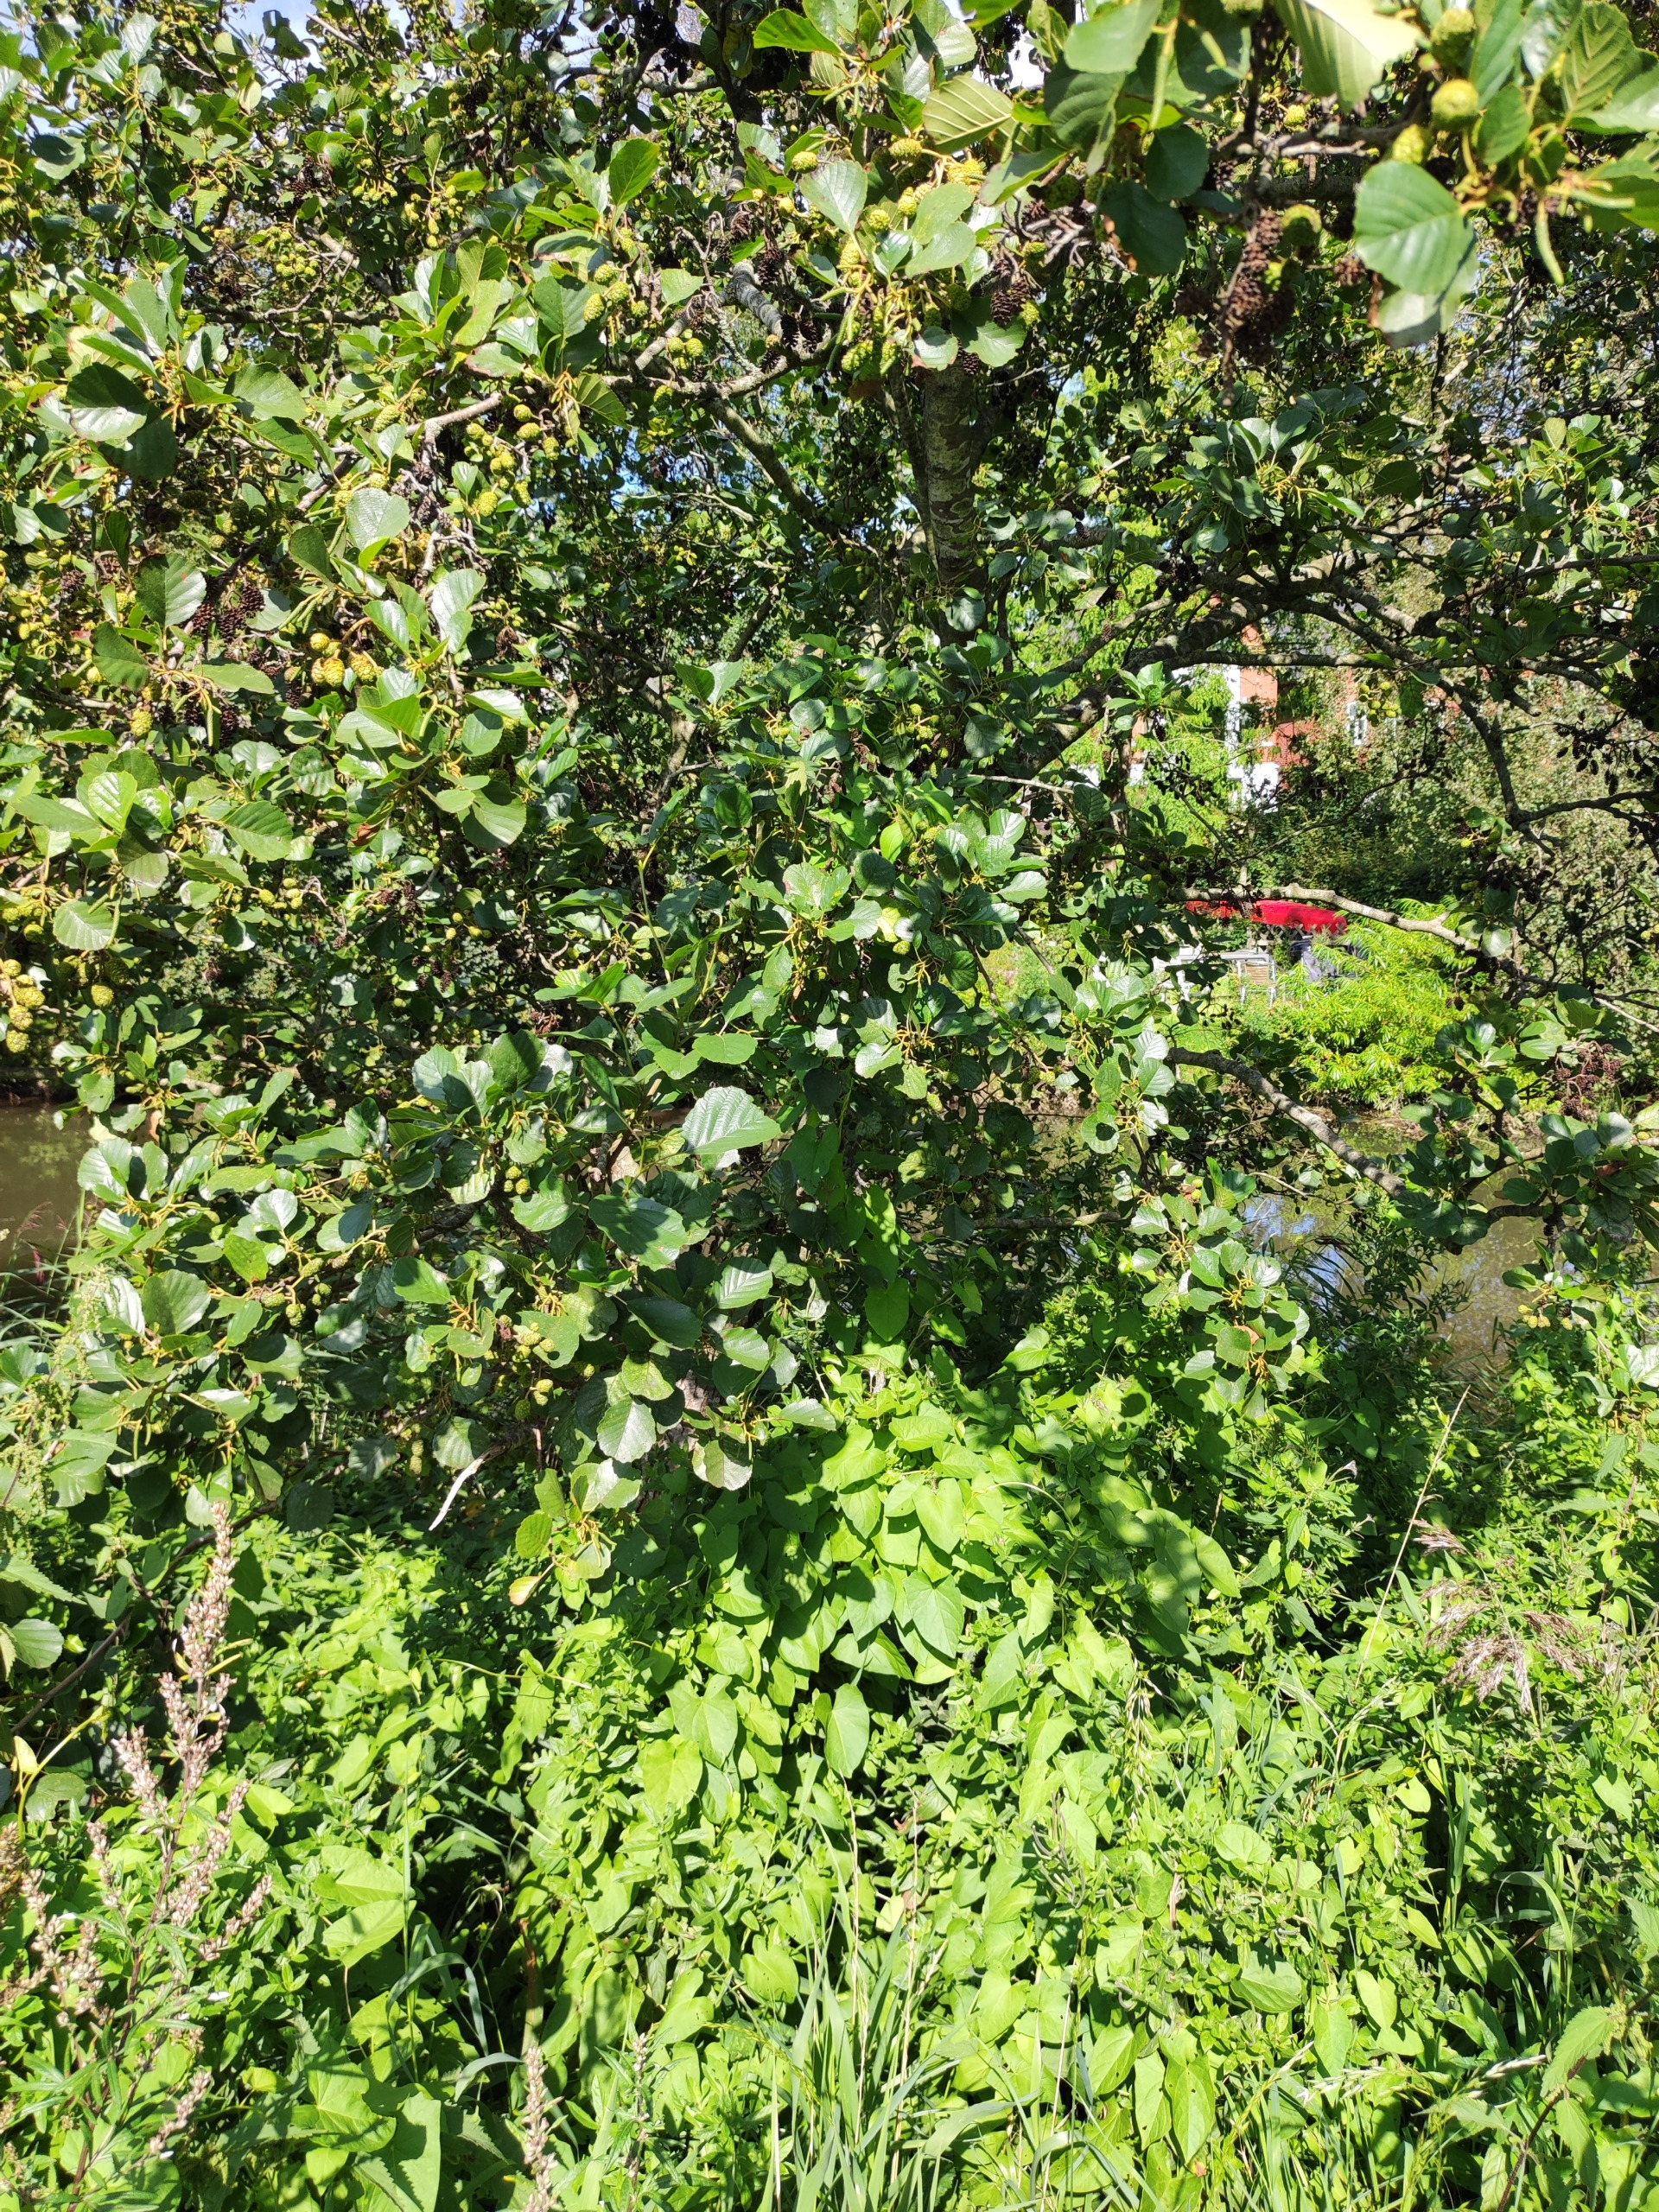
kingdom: Plantae
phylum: Tracheophyta
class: Magnoliopsida
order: Fagales
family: Betulaceae
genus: Alnus
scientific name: Alnus glutinosa
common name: Rød-el
